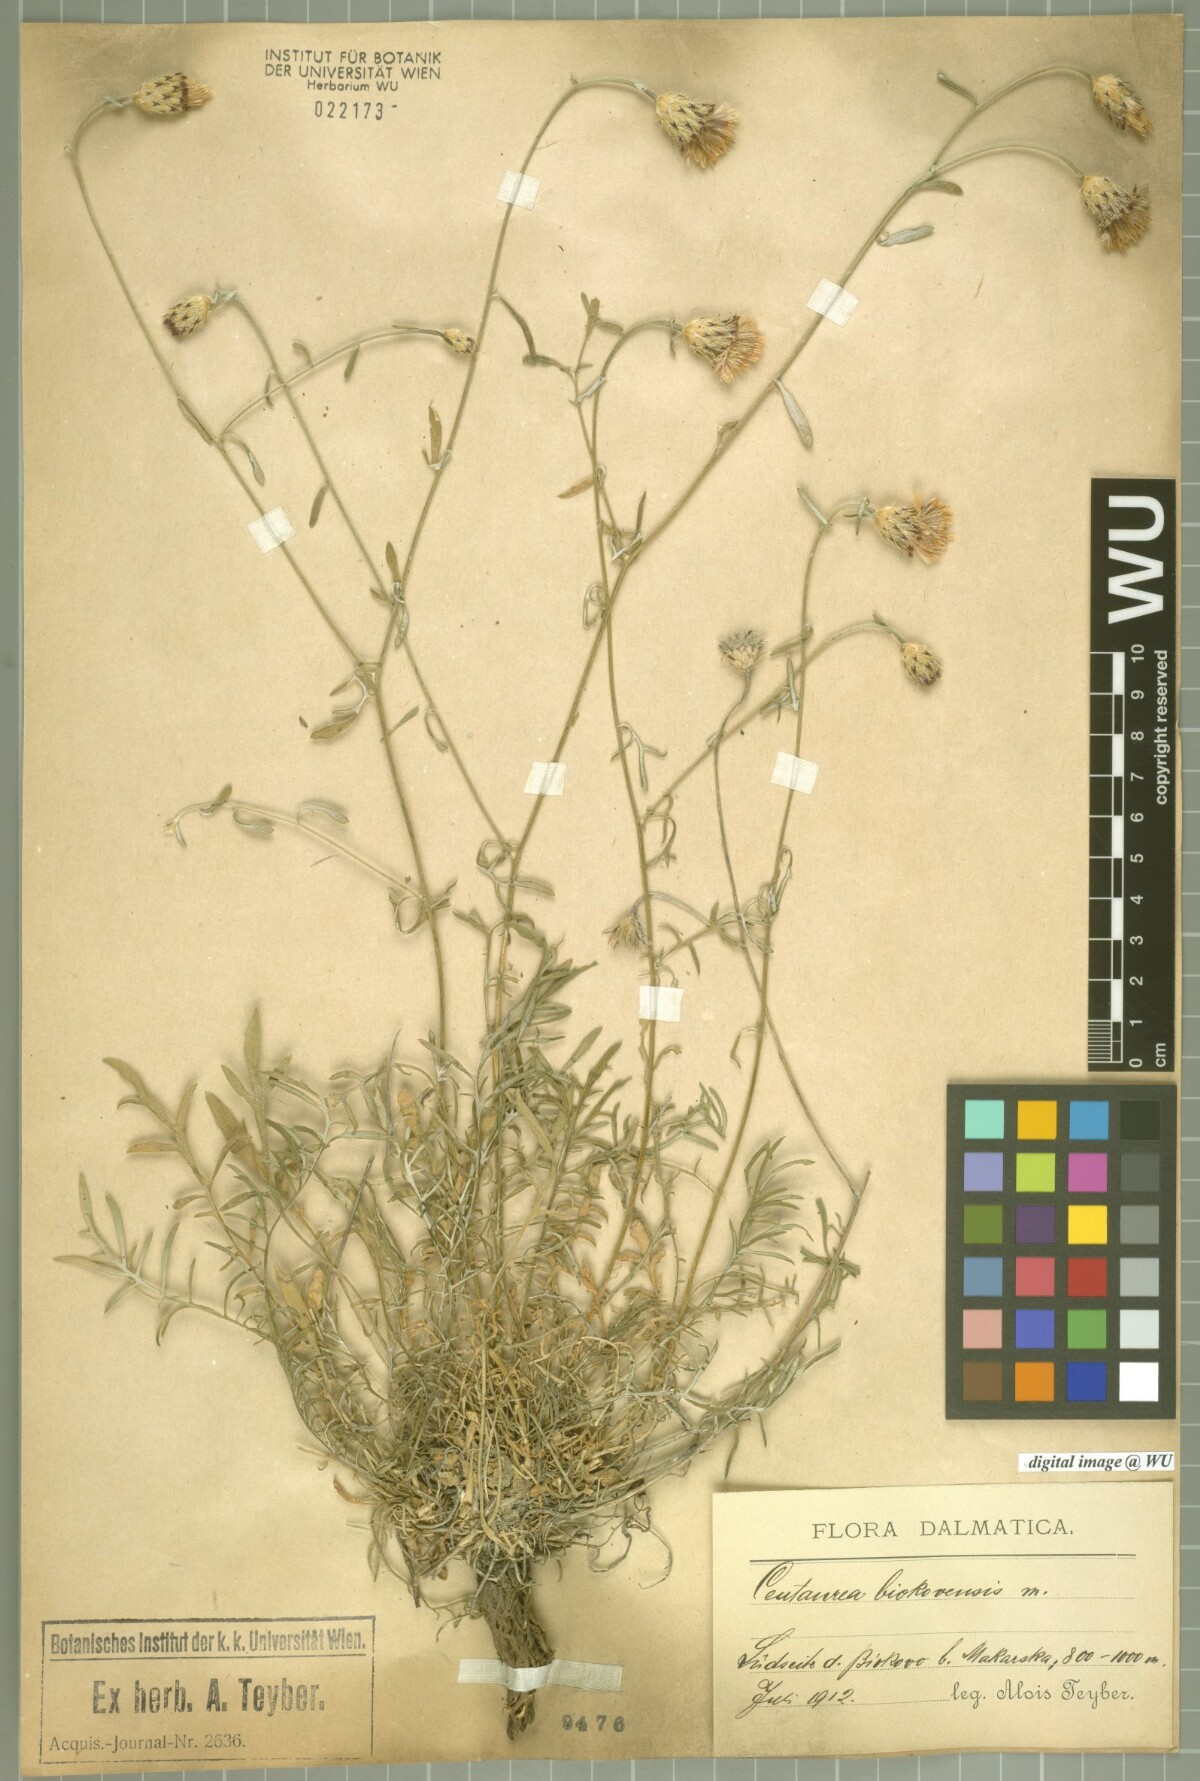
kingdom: Plantae
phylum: Tracheophyta
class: Magnoliopsida
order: Asterales
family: Asteraceae
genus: Centaurea
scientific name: Centaurea biokovensis
